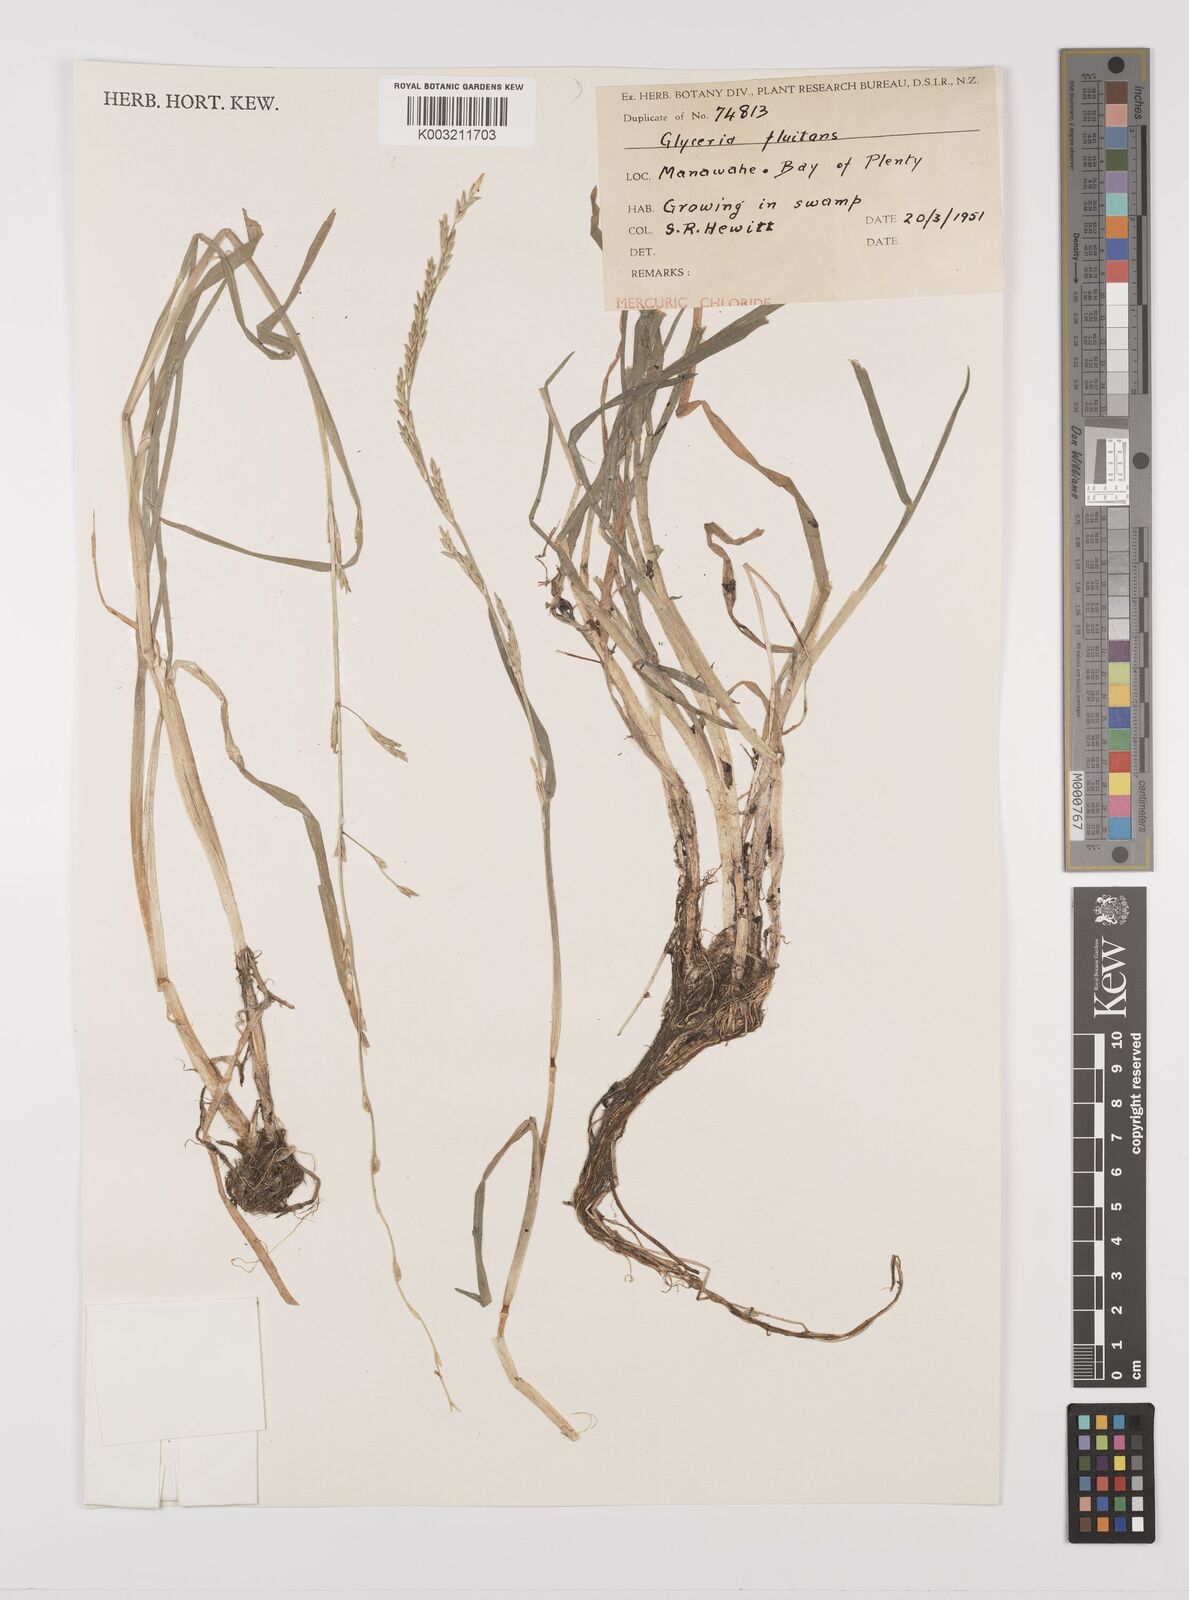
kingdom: Plantae
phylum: Tracheophyta
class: Liliopsida
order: Poales
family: Poaceae
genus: Glyceria
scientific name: Glyceria fluitans
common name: Floating sweet-grass
